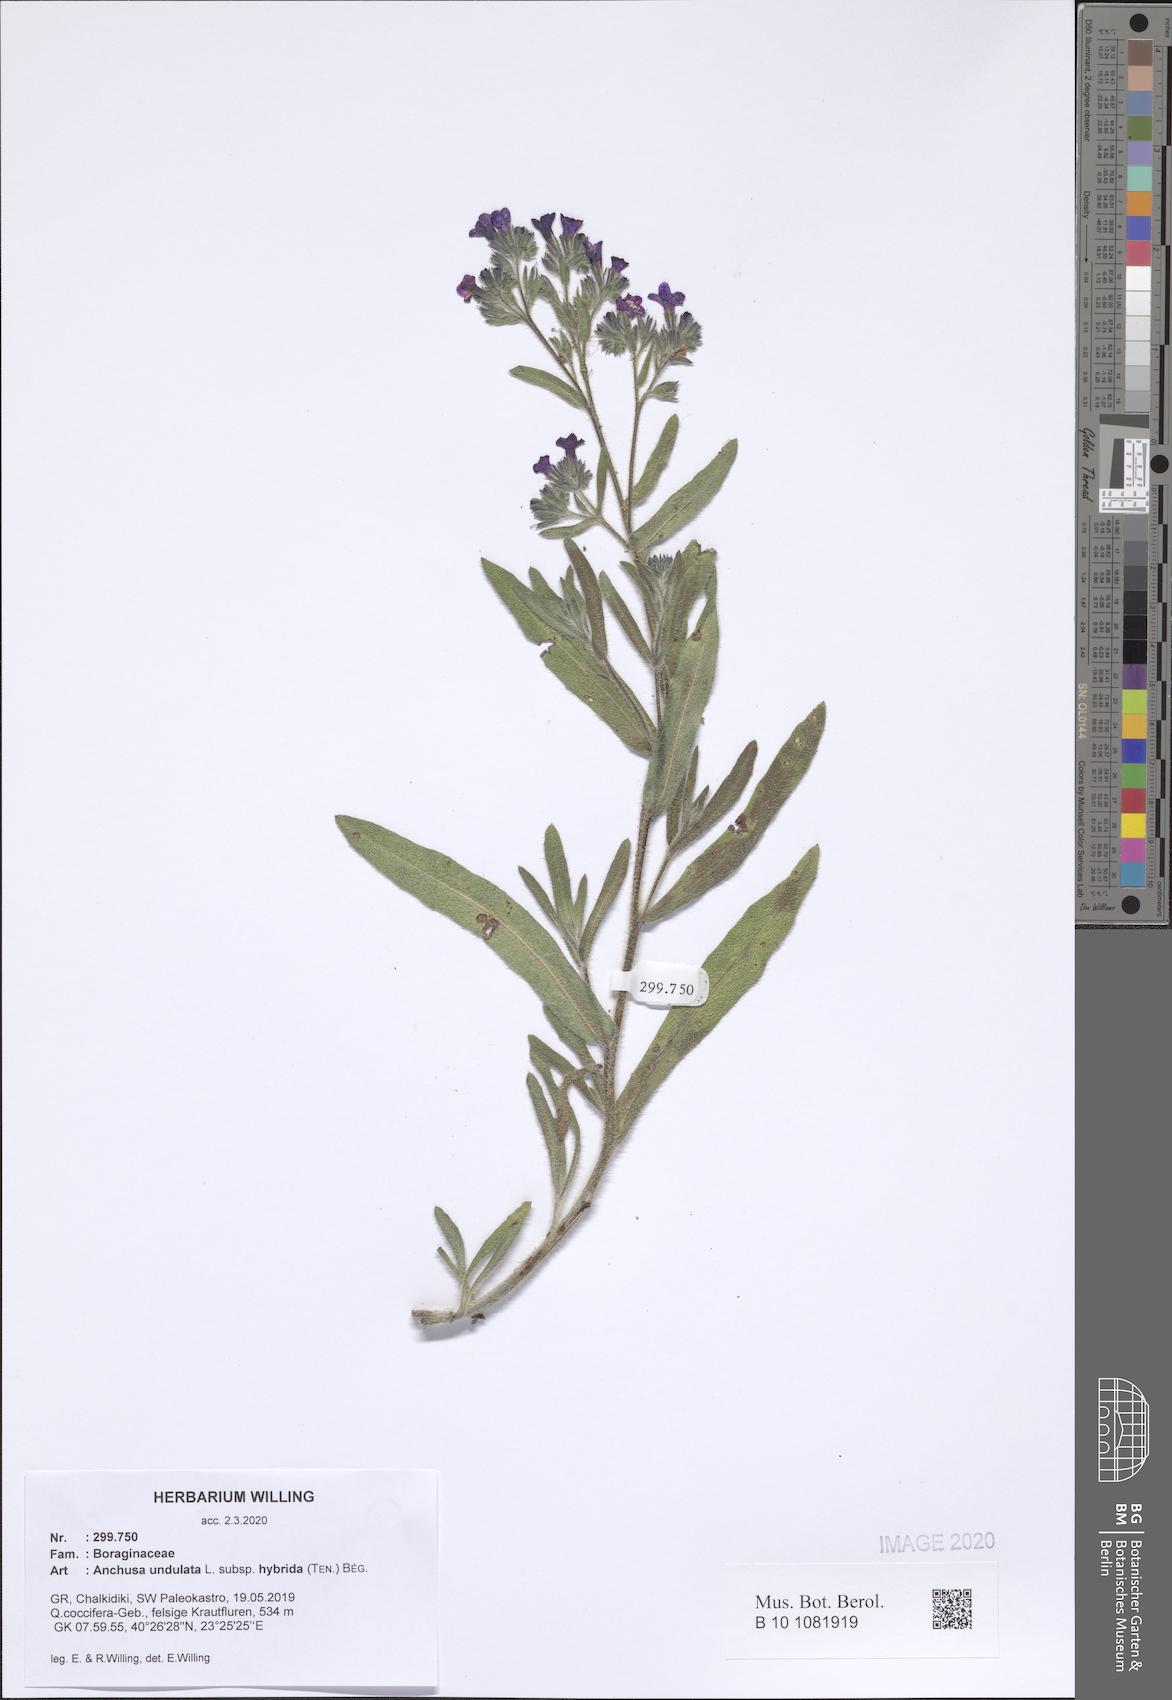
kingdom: Plantae
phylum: Tracheophyta
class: Magnoliopsida
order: Boraginales
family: Boraginaceae
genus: Anchusa
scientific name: Anchusa undulata
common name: Undulate alkanet
